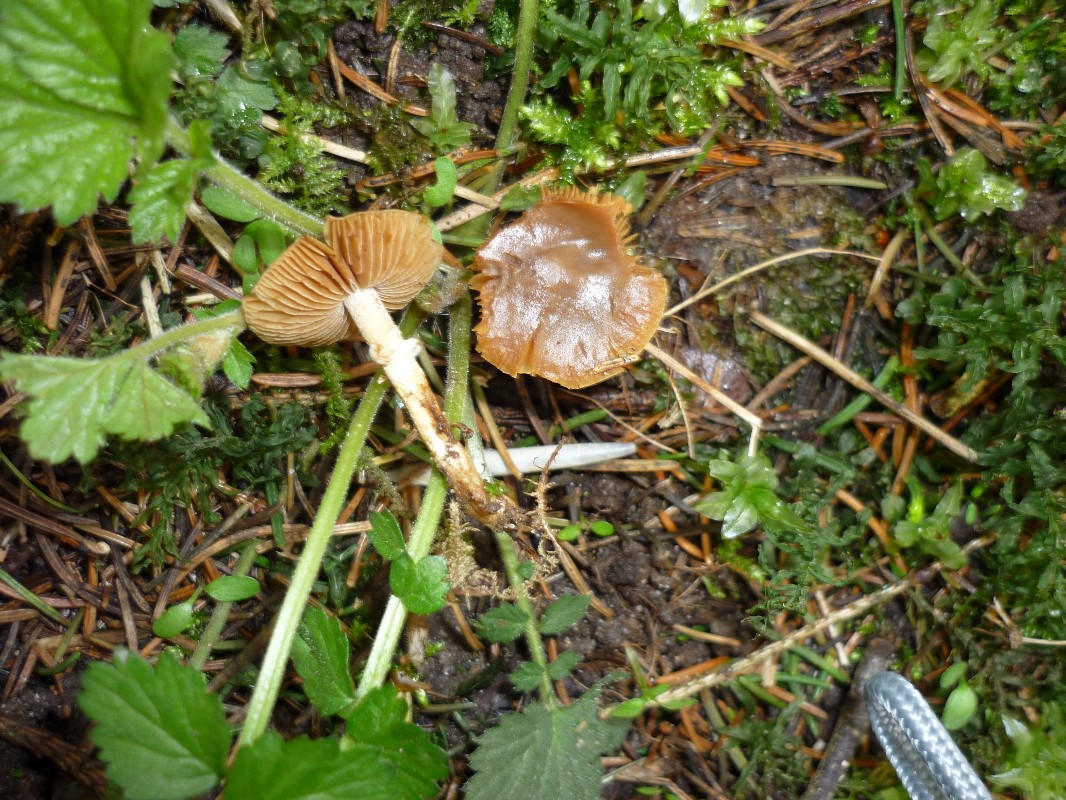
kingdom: Fungi
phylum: Basidiomycota
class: Agaricomycetes
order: Agaricales
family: Bolbitiaceae
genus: Conocybe
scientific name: Conocybe aporos
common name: tidlig dansehat
